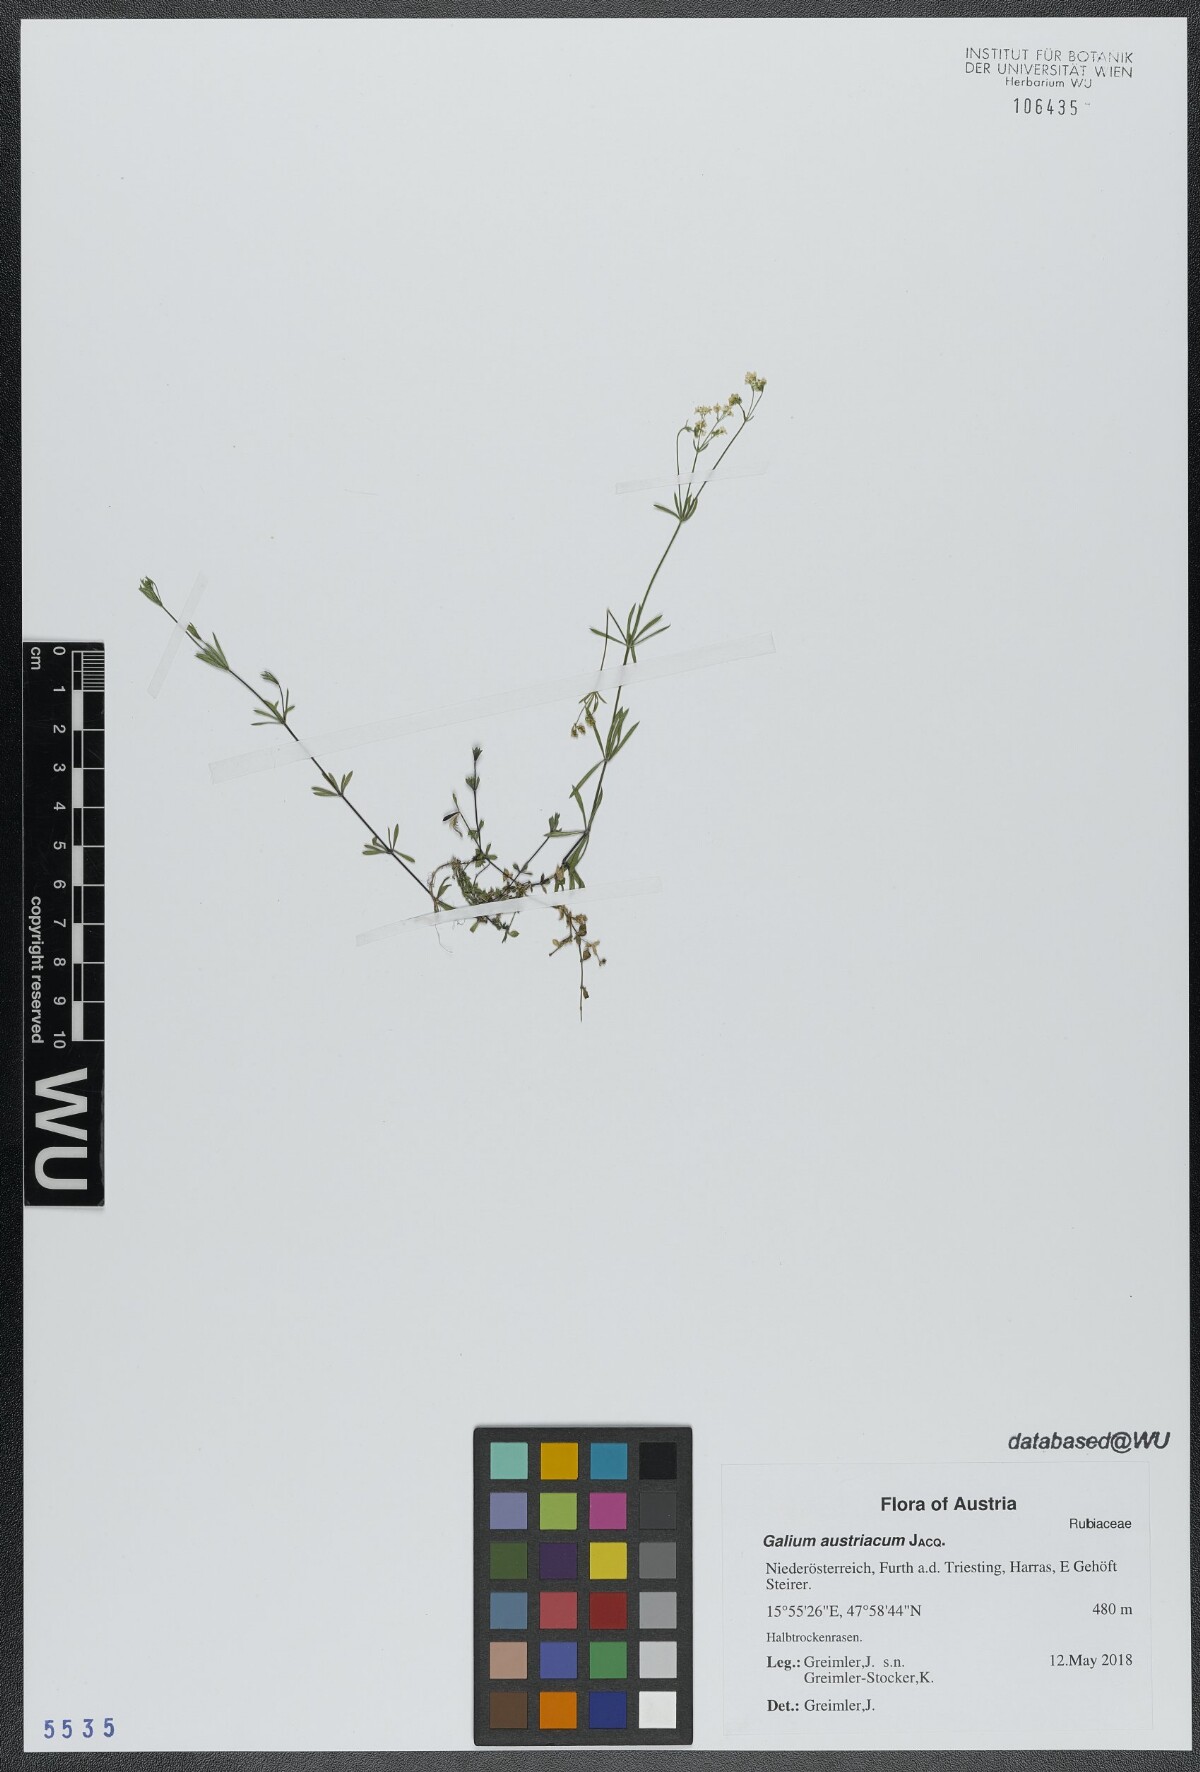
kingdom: Plantae
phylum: Tracheophyta
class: Magnoliopsida
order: Gentianales
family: Rubiaceae
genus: Galium
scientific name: Galium austriacum
